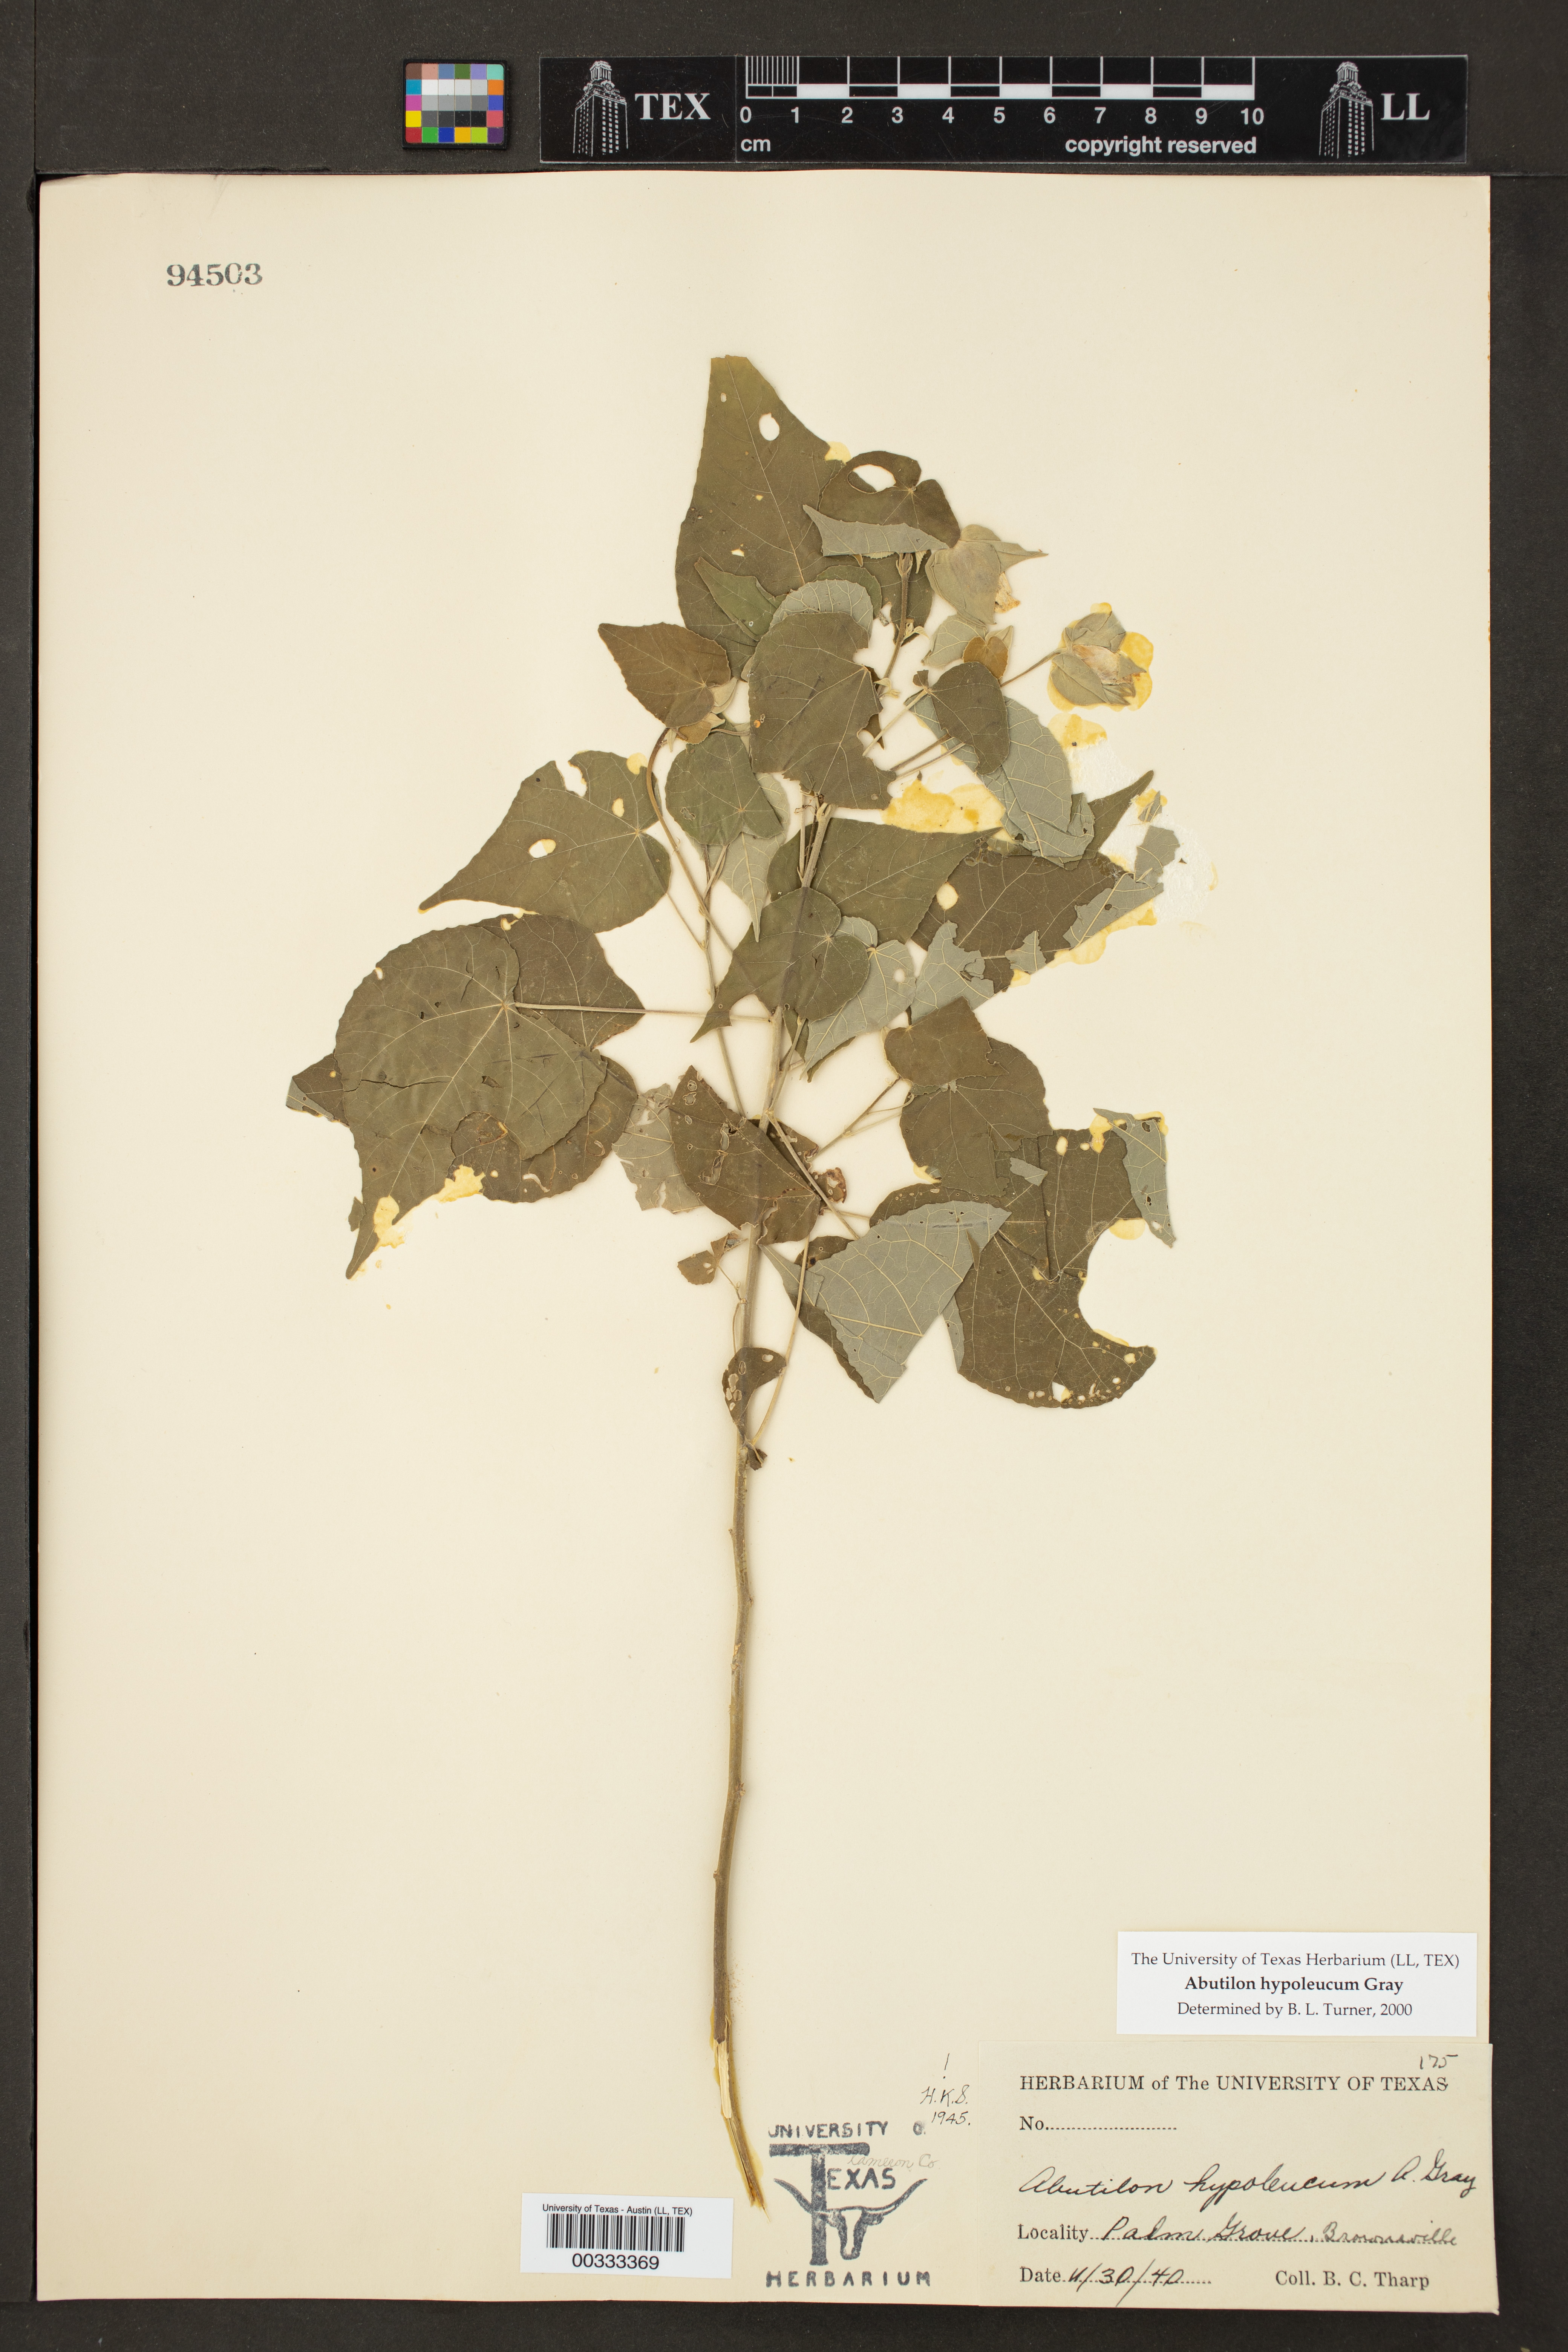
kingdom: Plantae
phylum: Tracheophyta
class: Magnoliopsida
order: Malvales
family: Malvaceae
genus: Abutilon
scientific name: Abutilon hypoleucum
